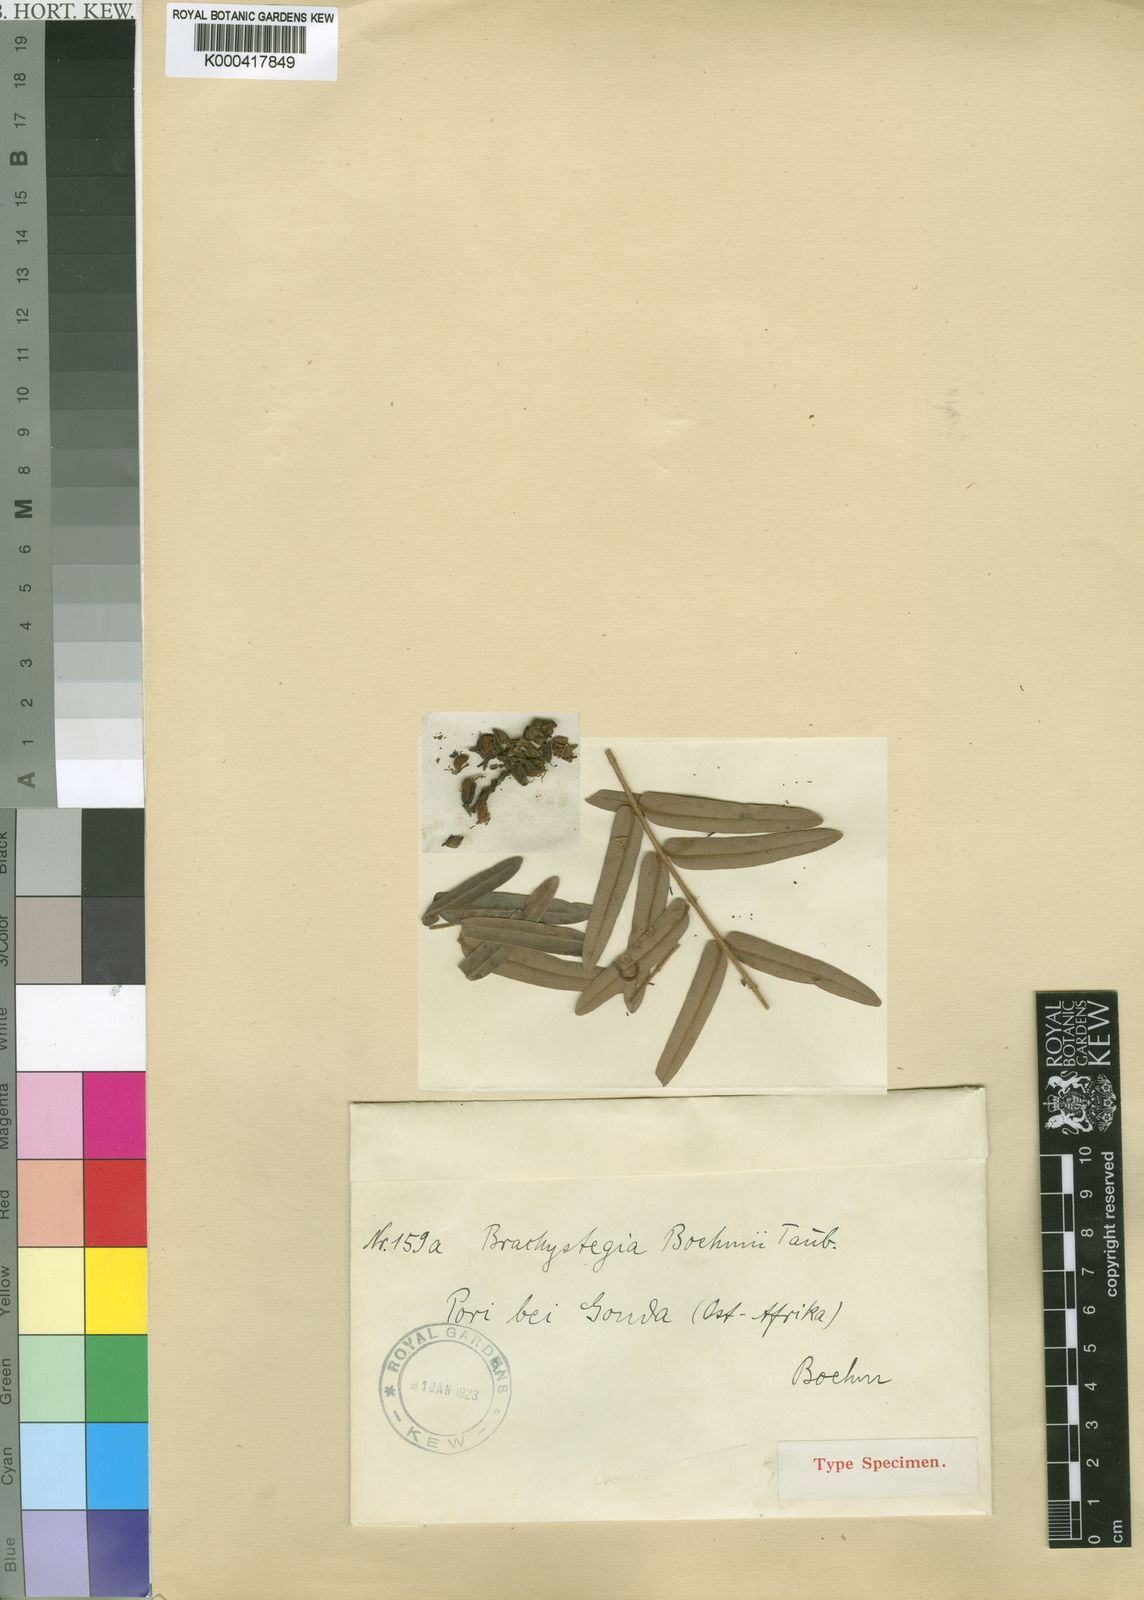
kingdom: Plantae
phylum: Tracheophyta
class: Magnoliopsida
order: Fabales
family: Fabaceae
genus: Brachystegia
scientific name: Brachystegia boehmii
